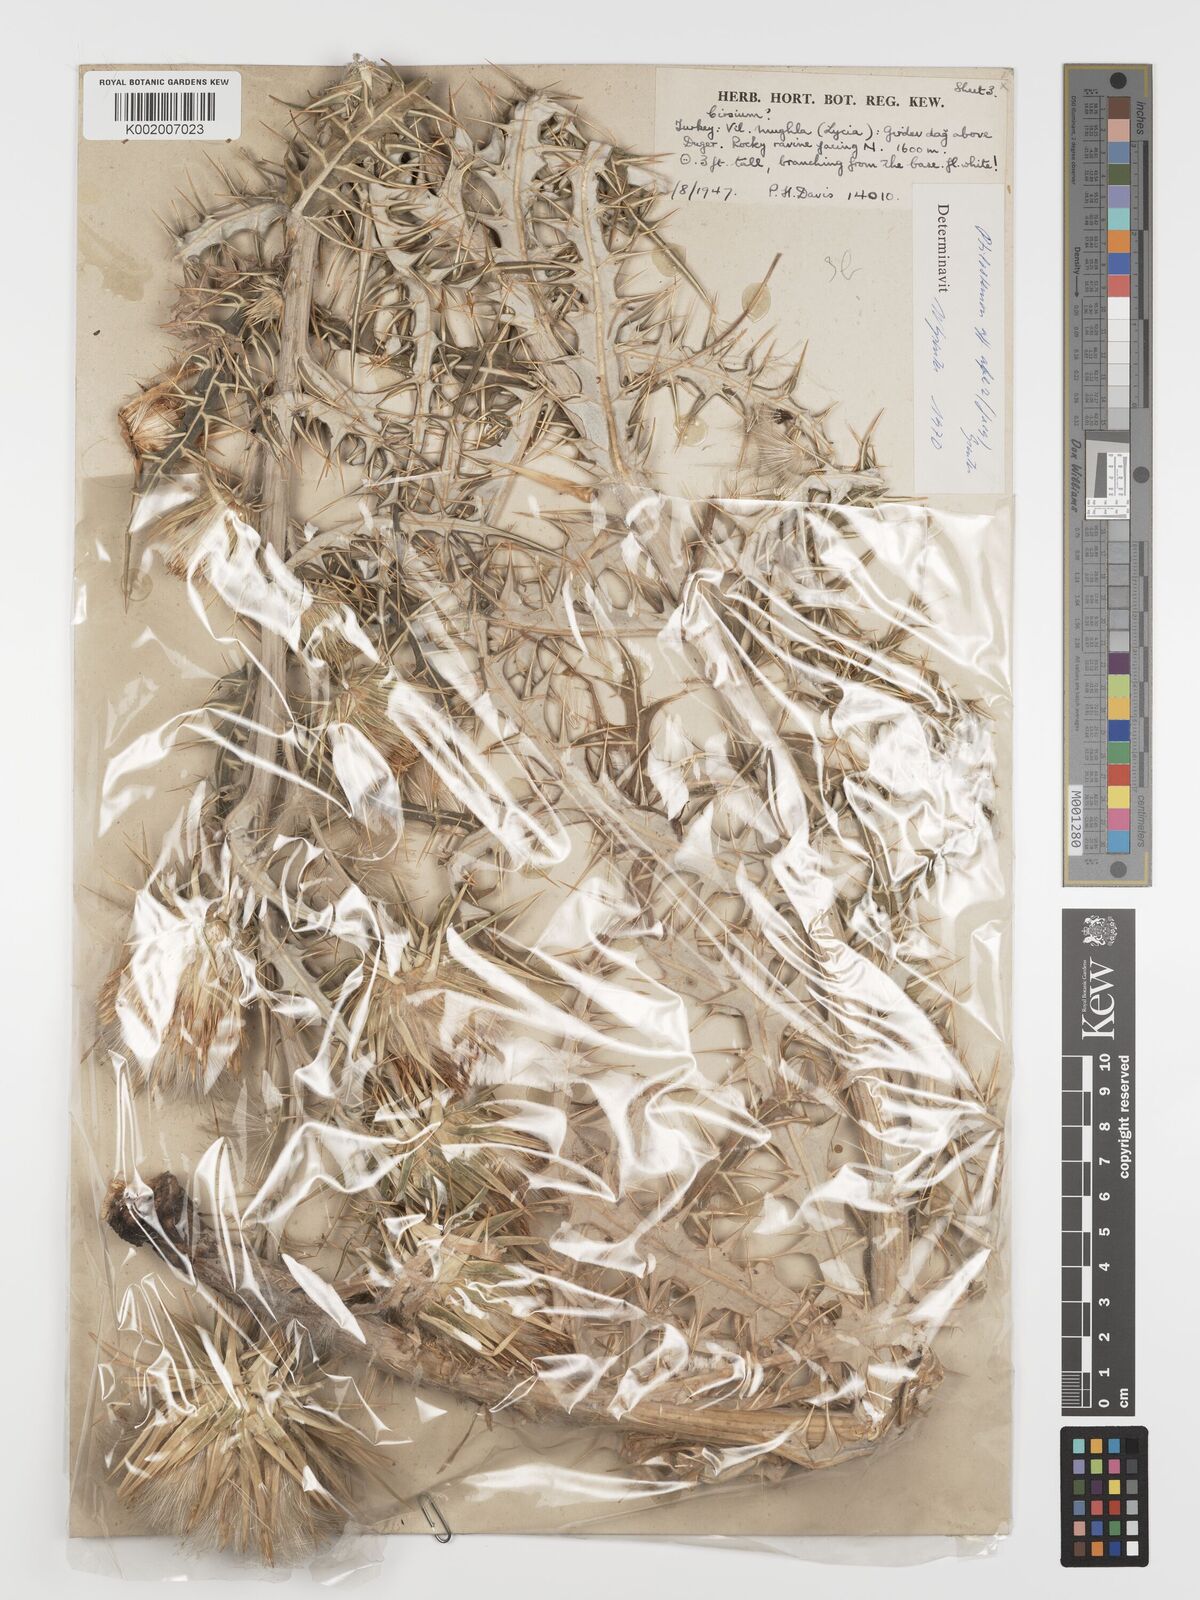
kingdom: Plantae
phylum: Tracheophyta
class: Magnoliopsida
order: Asterales
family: Asteraceae
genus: Ptilostemon
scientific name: Ptilostemon afer
